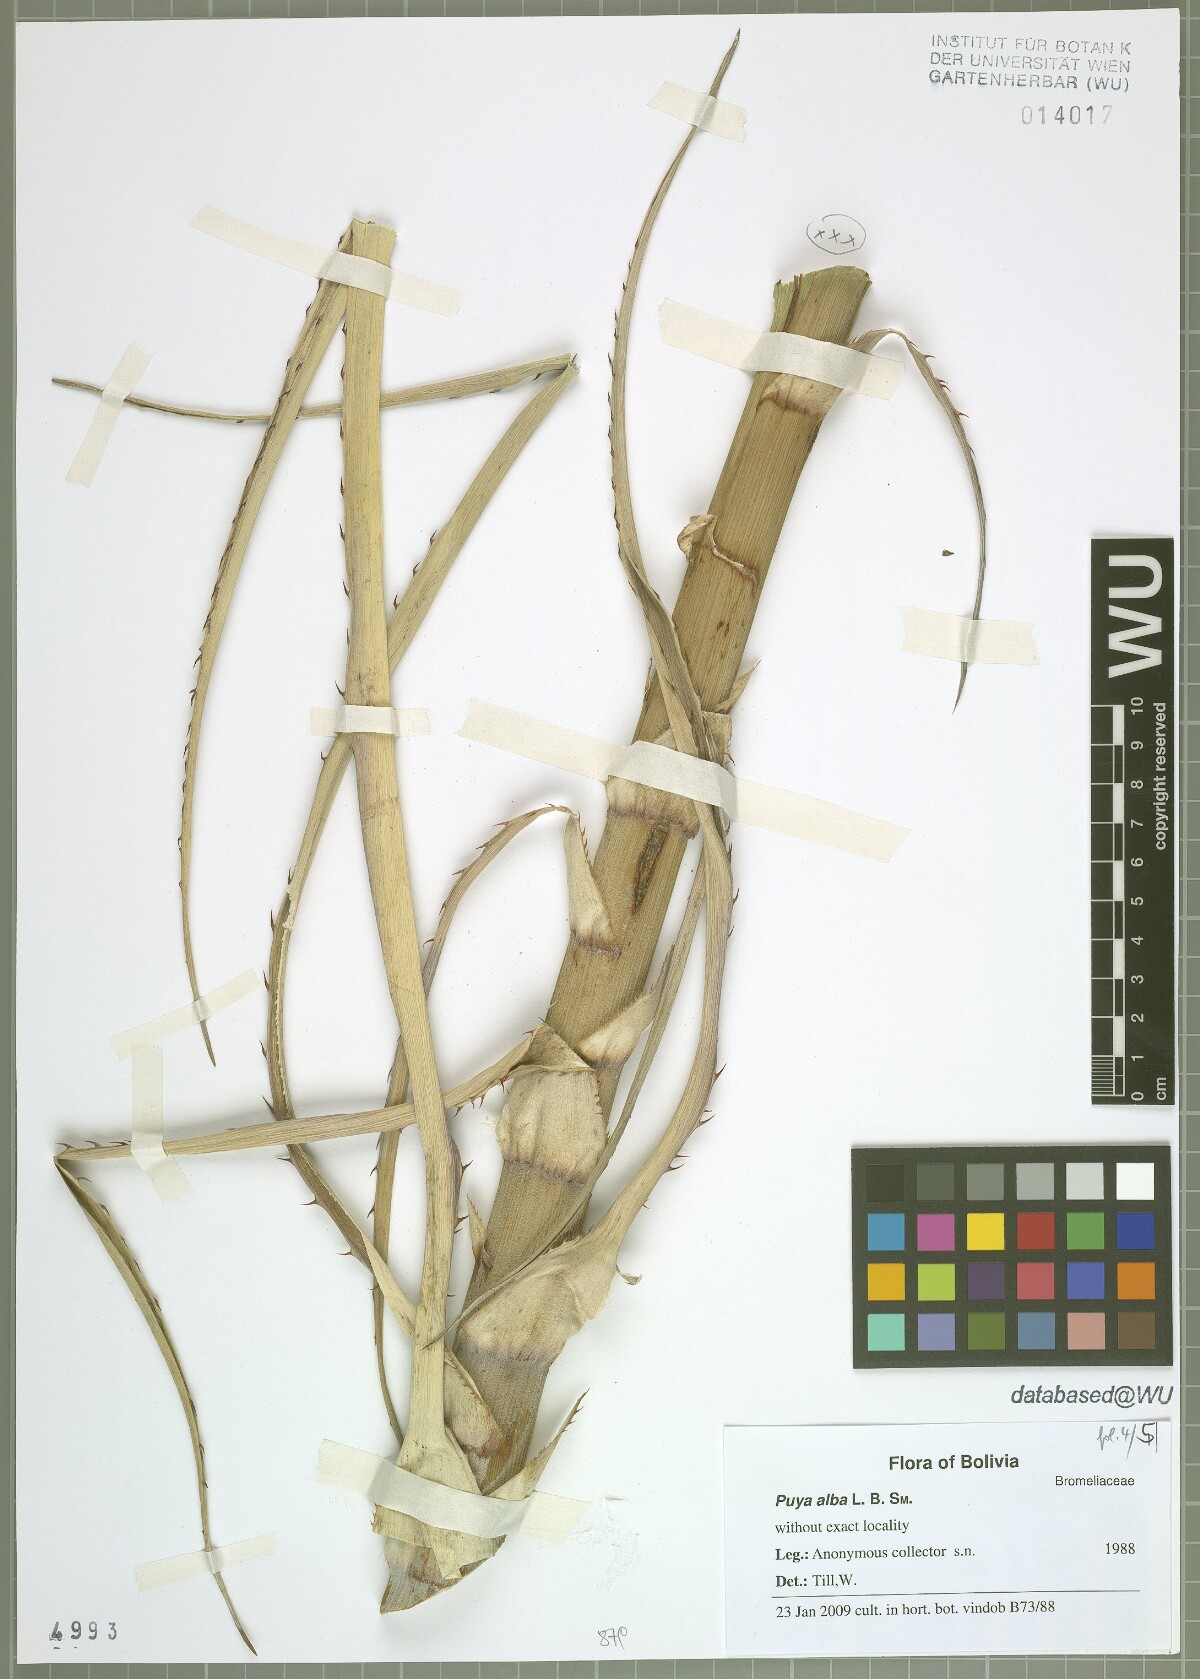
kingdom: Plantae
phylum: Tracheophyta
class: Liliopsida
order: Poales
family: Bromeliaceae
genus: Puya
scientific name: Puya alba
